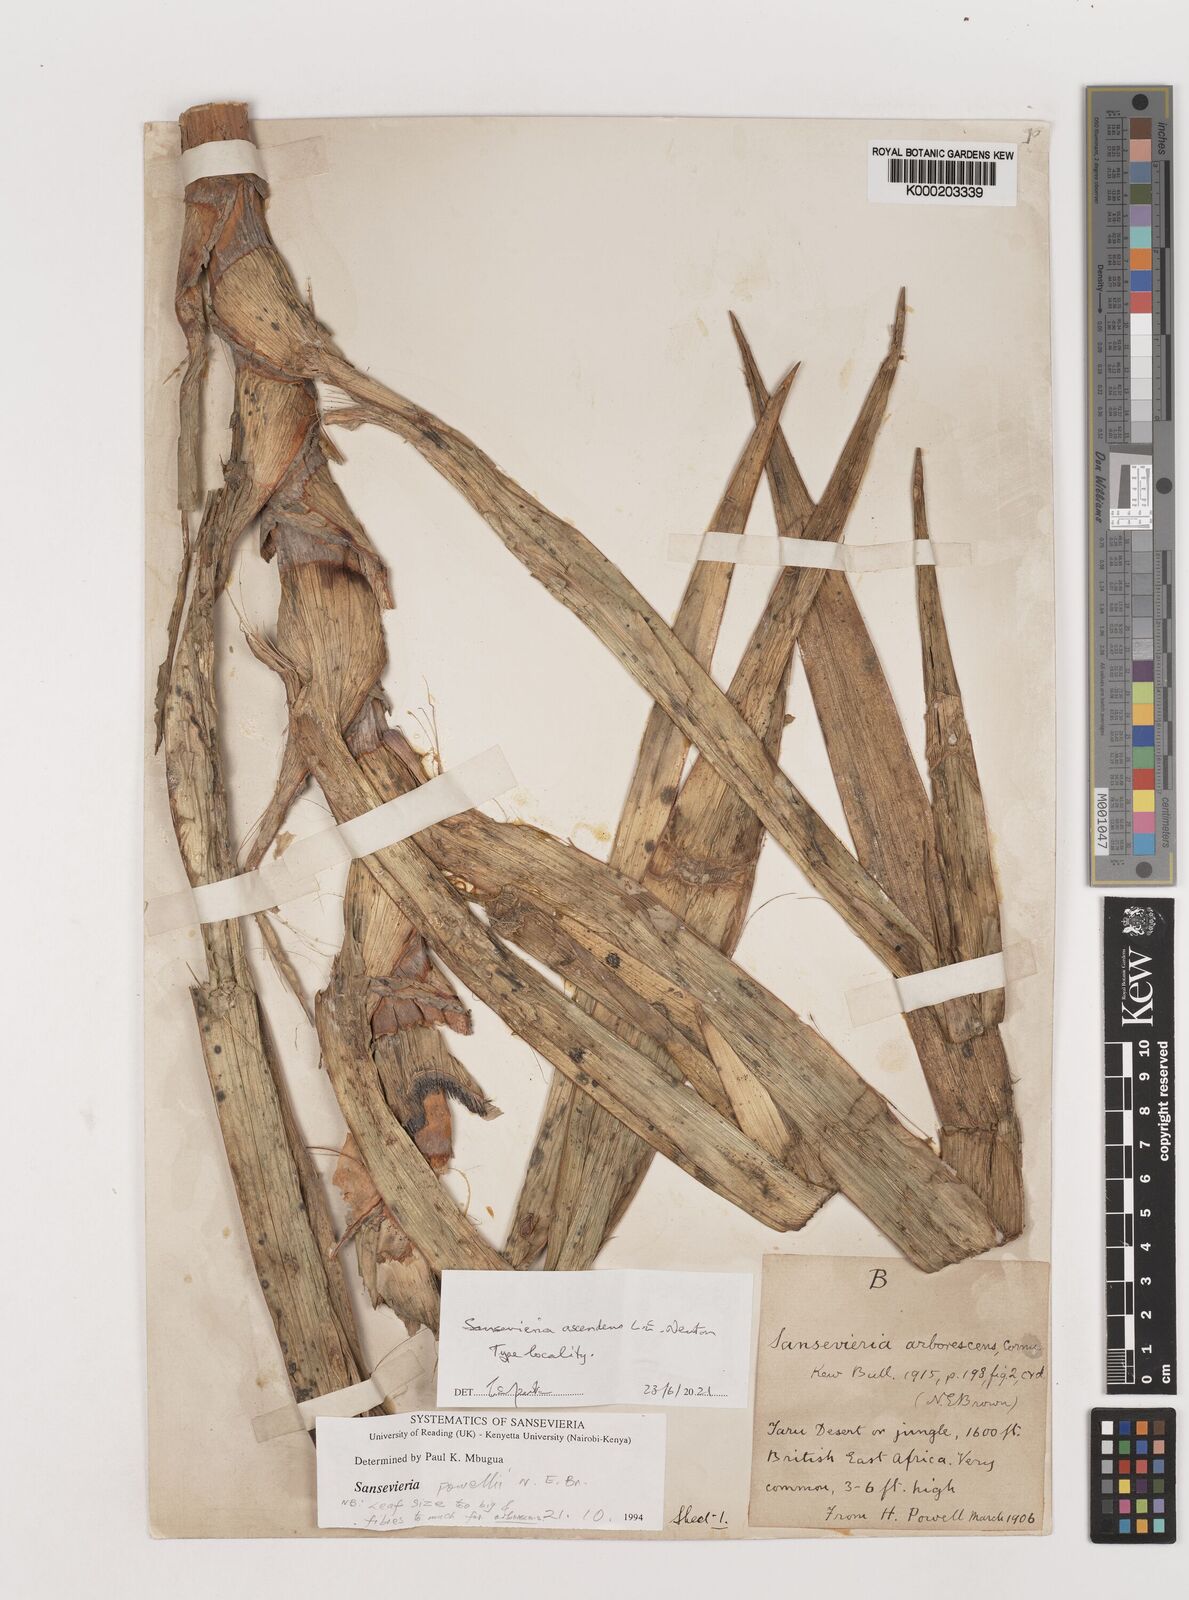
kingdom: Plantae
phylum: Tracheophyta
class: Liliopsida
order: Asparagales
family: Asparagaceae
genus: Dracaena
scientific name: Dracaena
